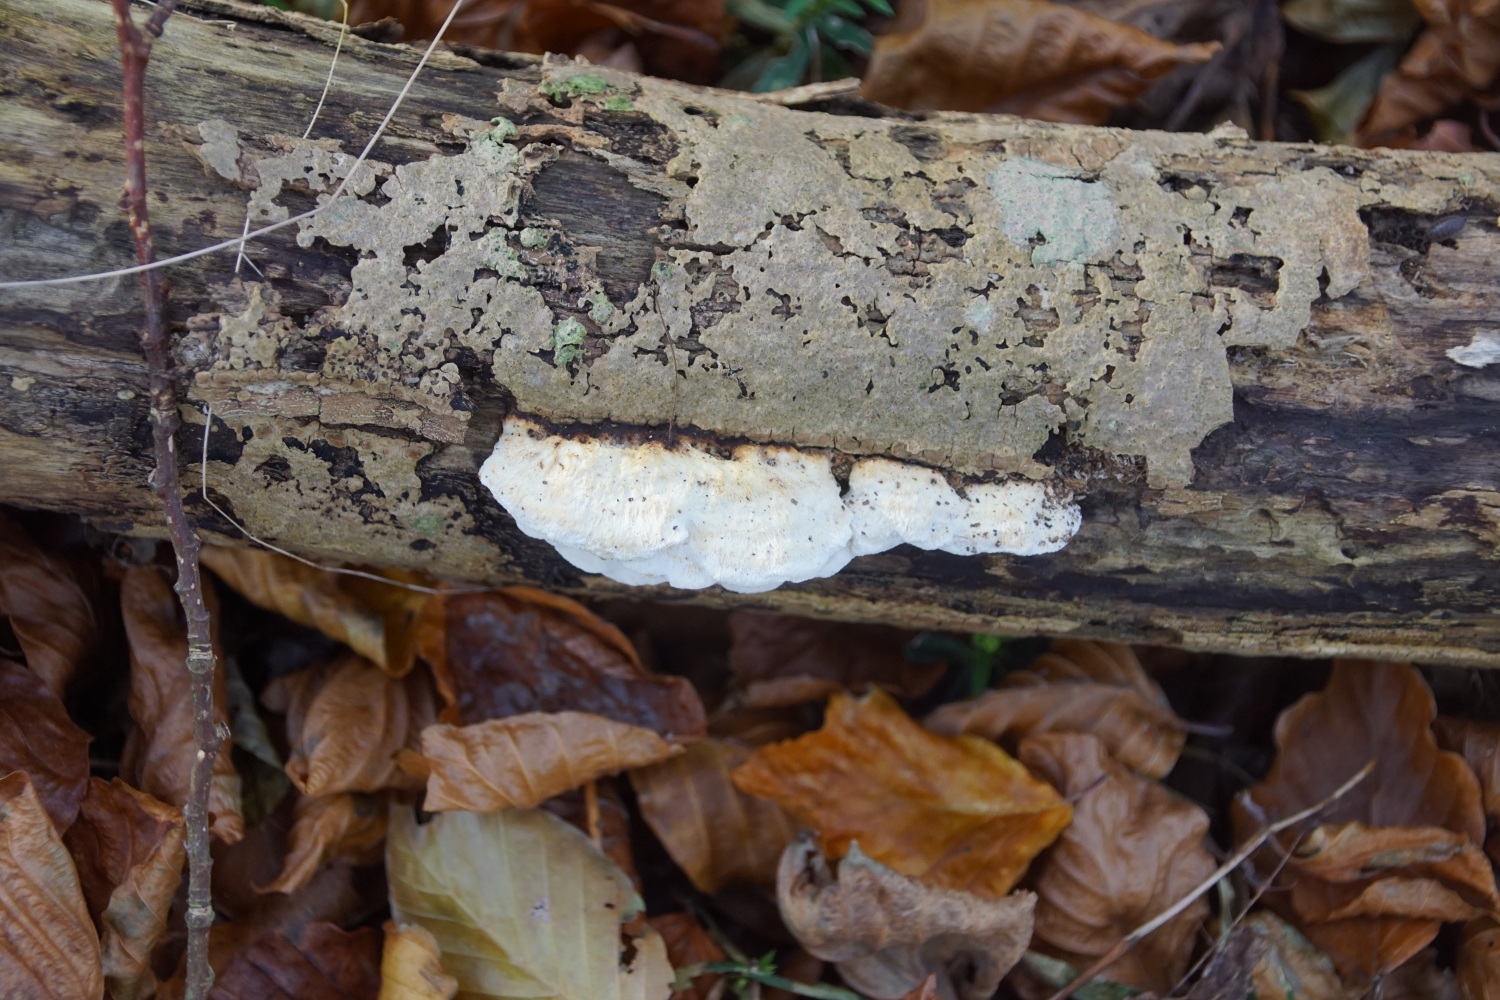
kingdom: Fungi
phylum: Basidiomycota
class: Agaricomycetes
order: Polyporales
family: Incrustoporiaceae
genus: Skeletocutis
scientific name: Skeletocutis nemoralis
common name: stor krystalporesvamp
